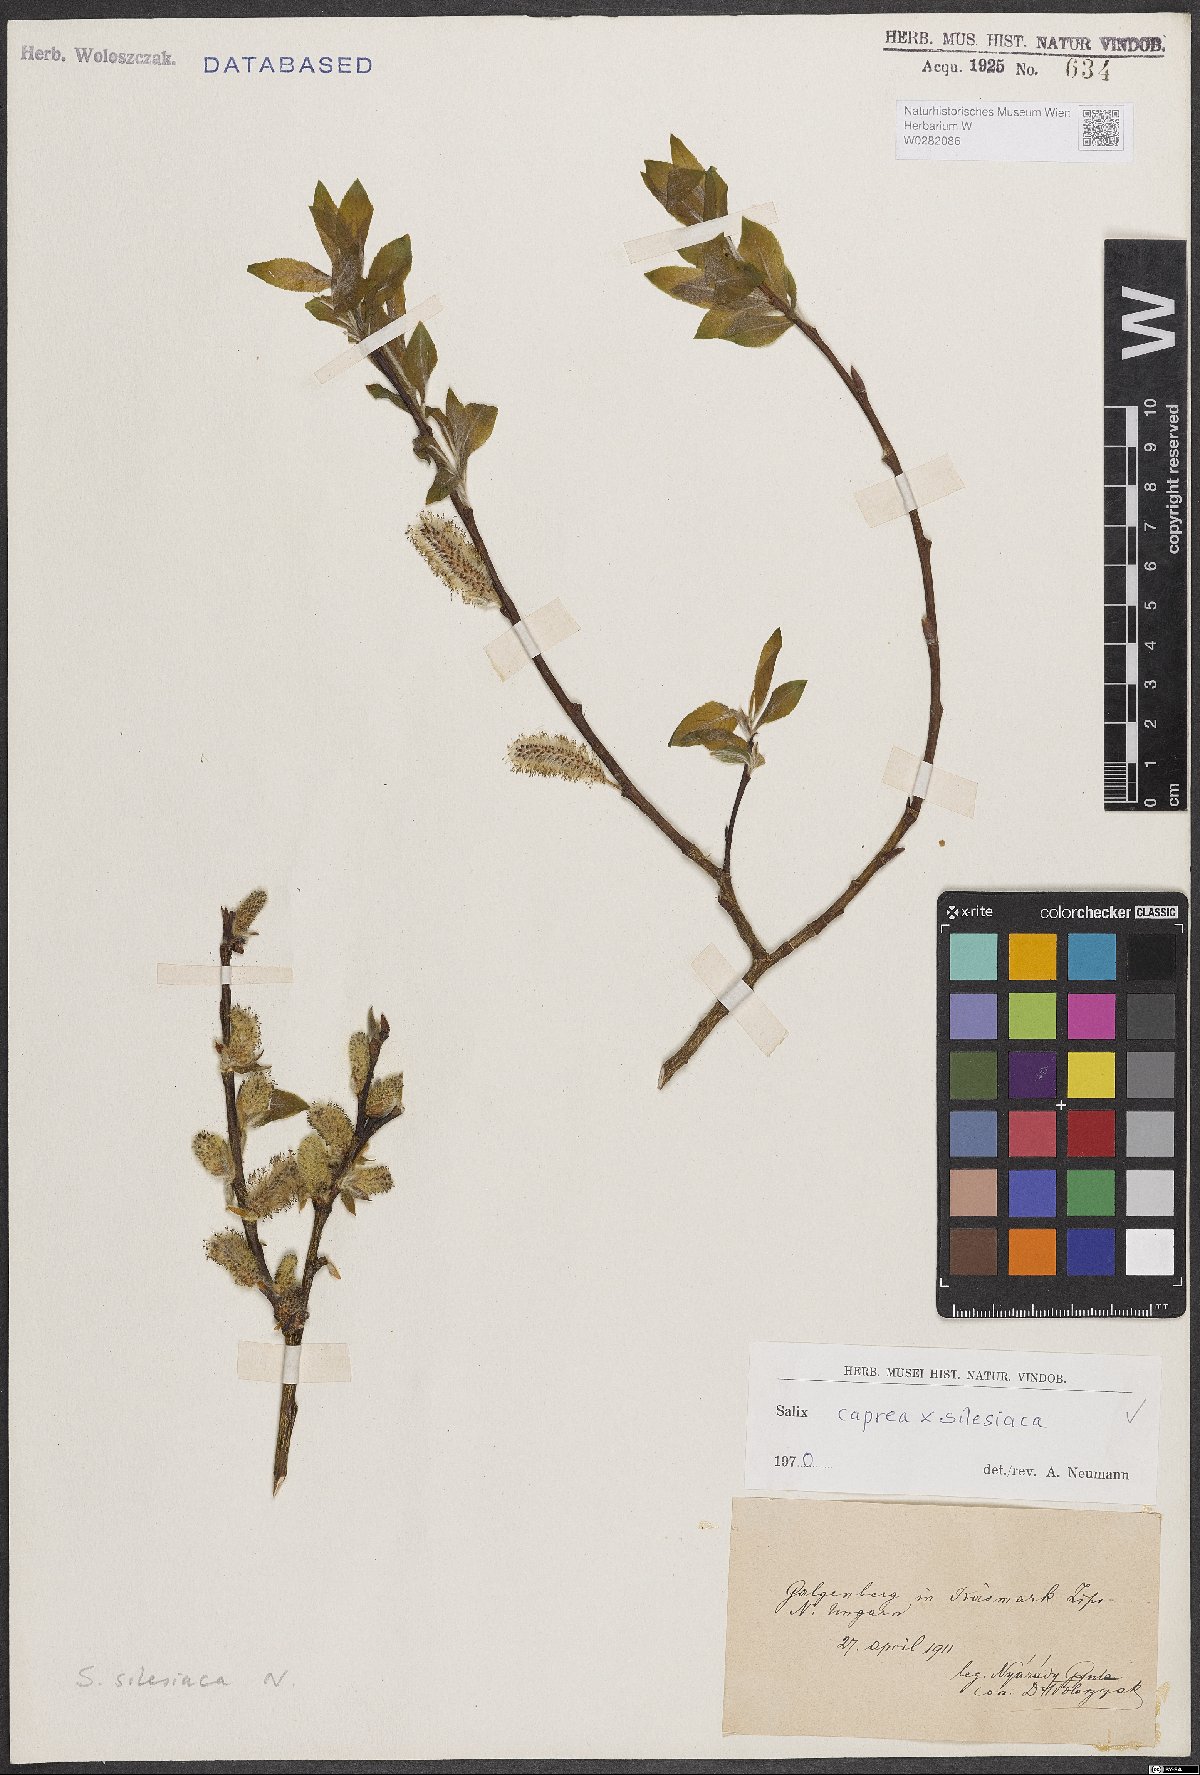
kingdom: Plantae
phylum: Tracheophyta
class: Magnoliopsida
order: Malpighiales
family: Salicaceae
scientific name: Salicaceae
